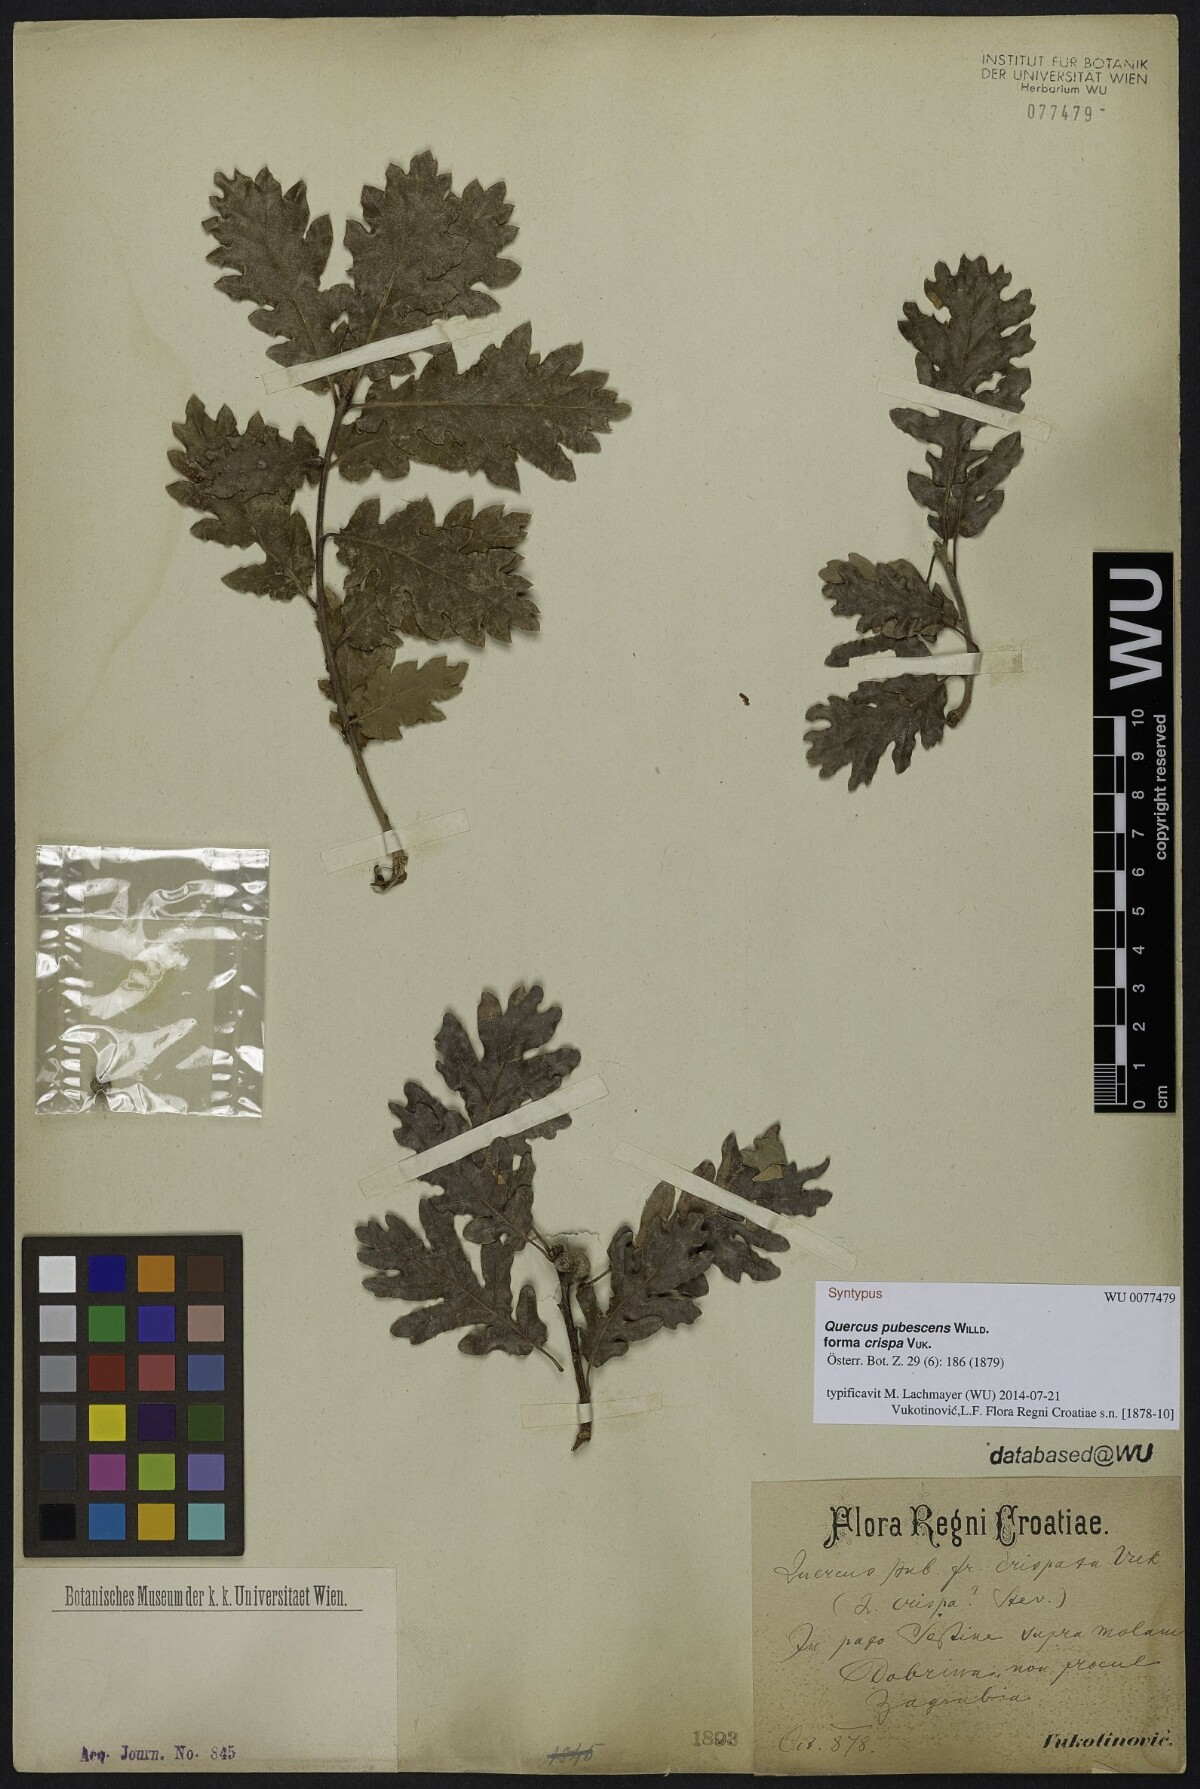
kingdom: Plantae
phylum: Tracheophyta
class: Magnoliopsida
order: Fagales
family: Fagaceae
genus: Quercus
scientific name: Quercus pubescens
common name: Downy oak
